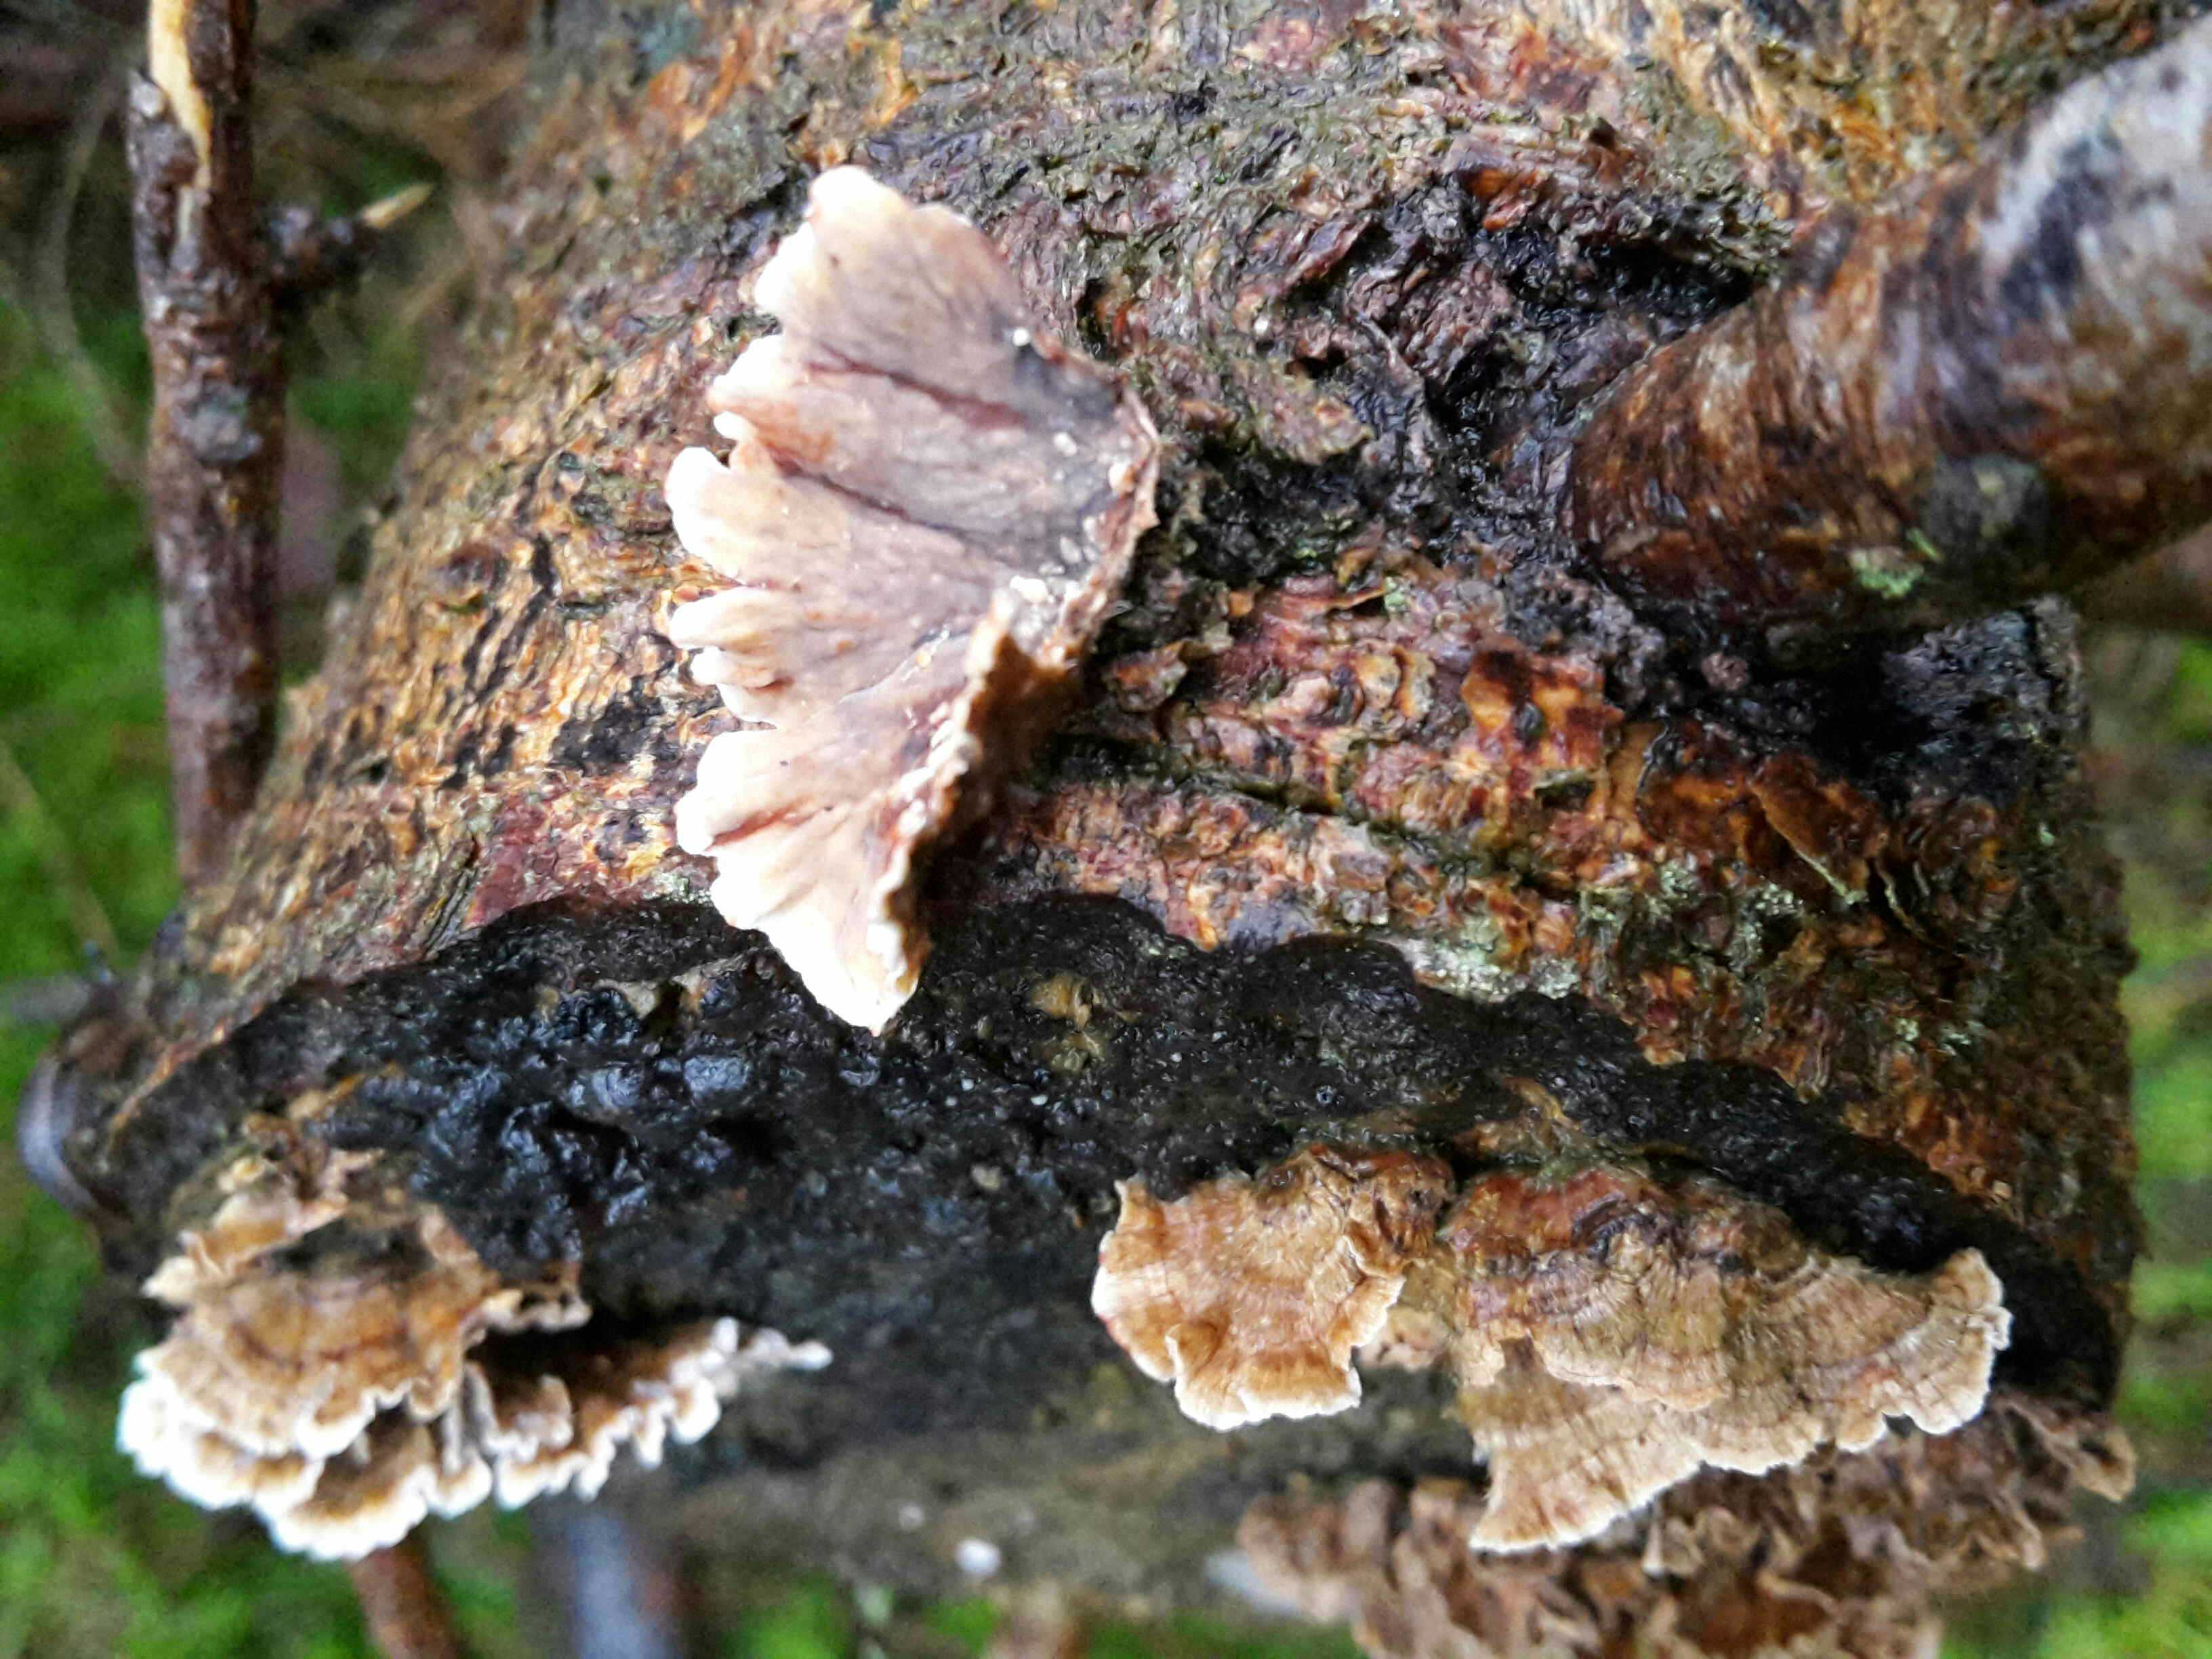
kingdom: Fungi
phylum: Basidiomycota
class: Agaricomycetes
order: Russulales
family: Stereaceae
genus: Stereum
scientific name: Stereum sanguinolentum
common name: blødende lædersvamp
